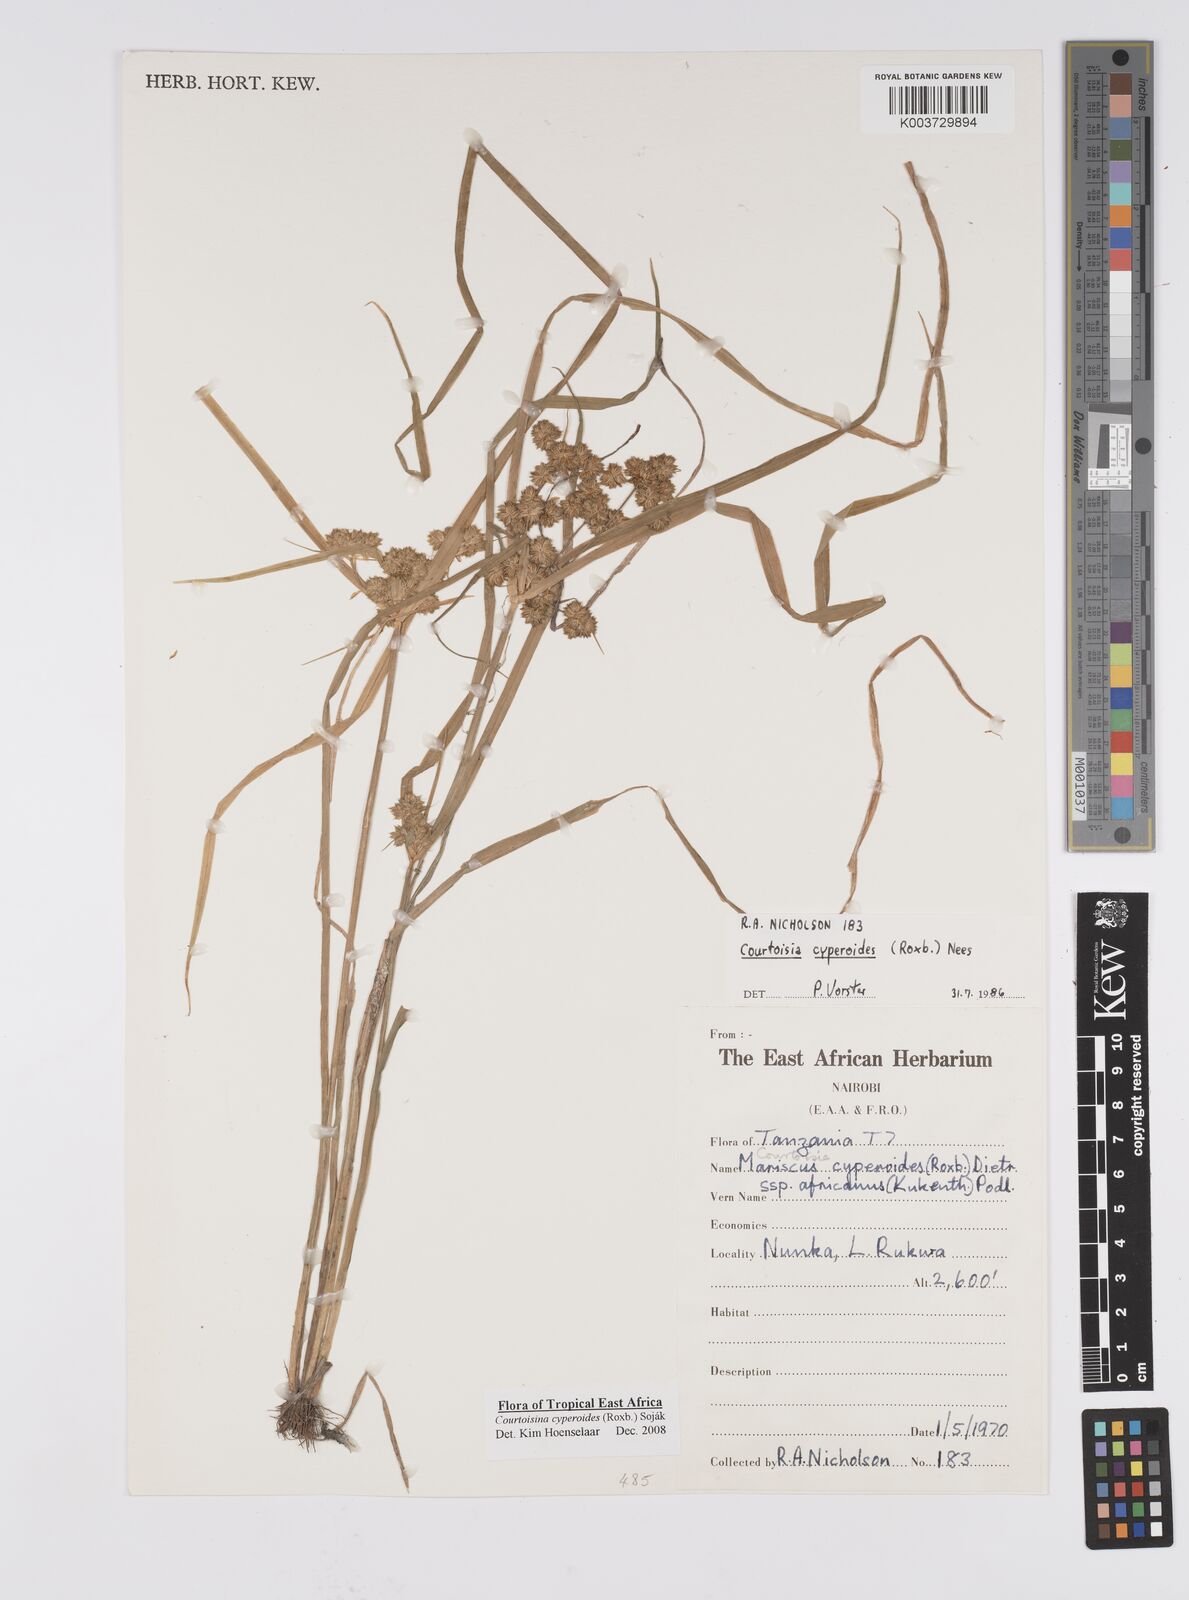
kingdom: Plantae
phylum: Tracheophyta
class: Liliopsida
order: Poales
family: Cyperaceae
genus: Cyperus
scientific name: Cyperus cyperoides
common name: Pacific island flat sedge
